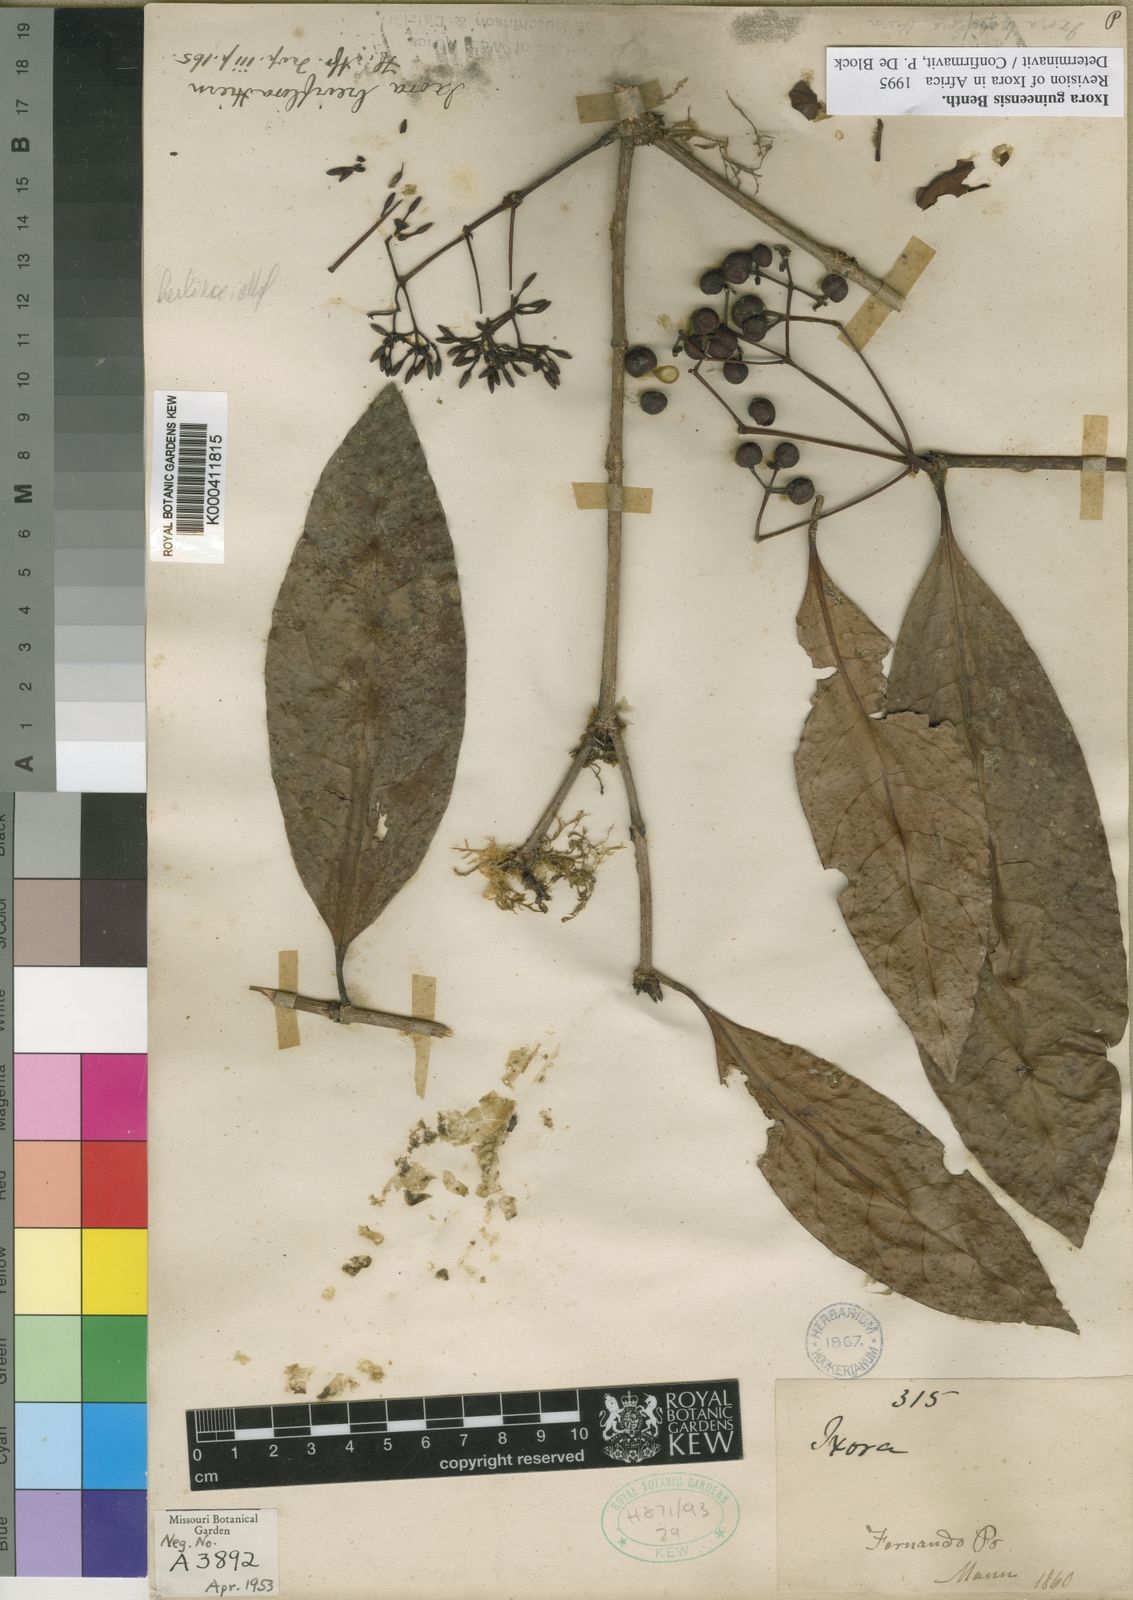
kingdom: Plantae
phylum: Tracheophyta
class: Magnoliopsida
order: Gentianales
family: Rubiaceae
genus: Ixora
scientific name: Ixora guineensis
